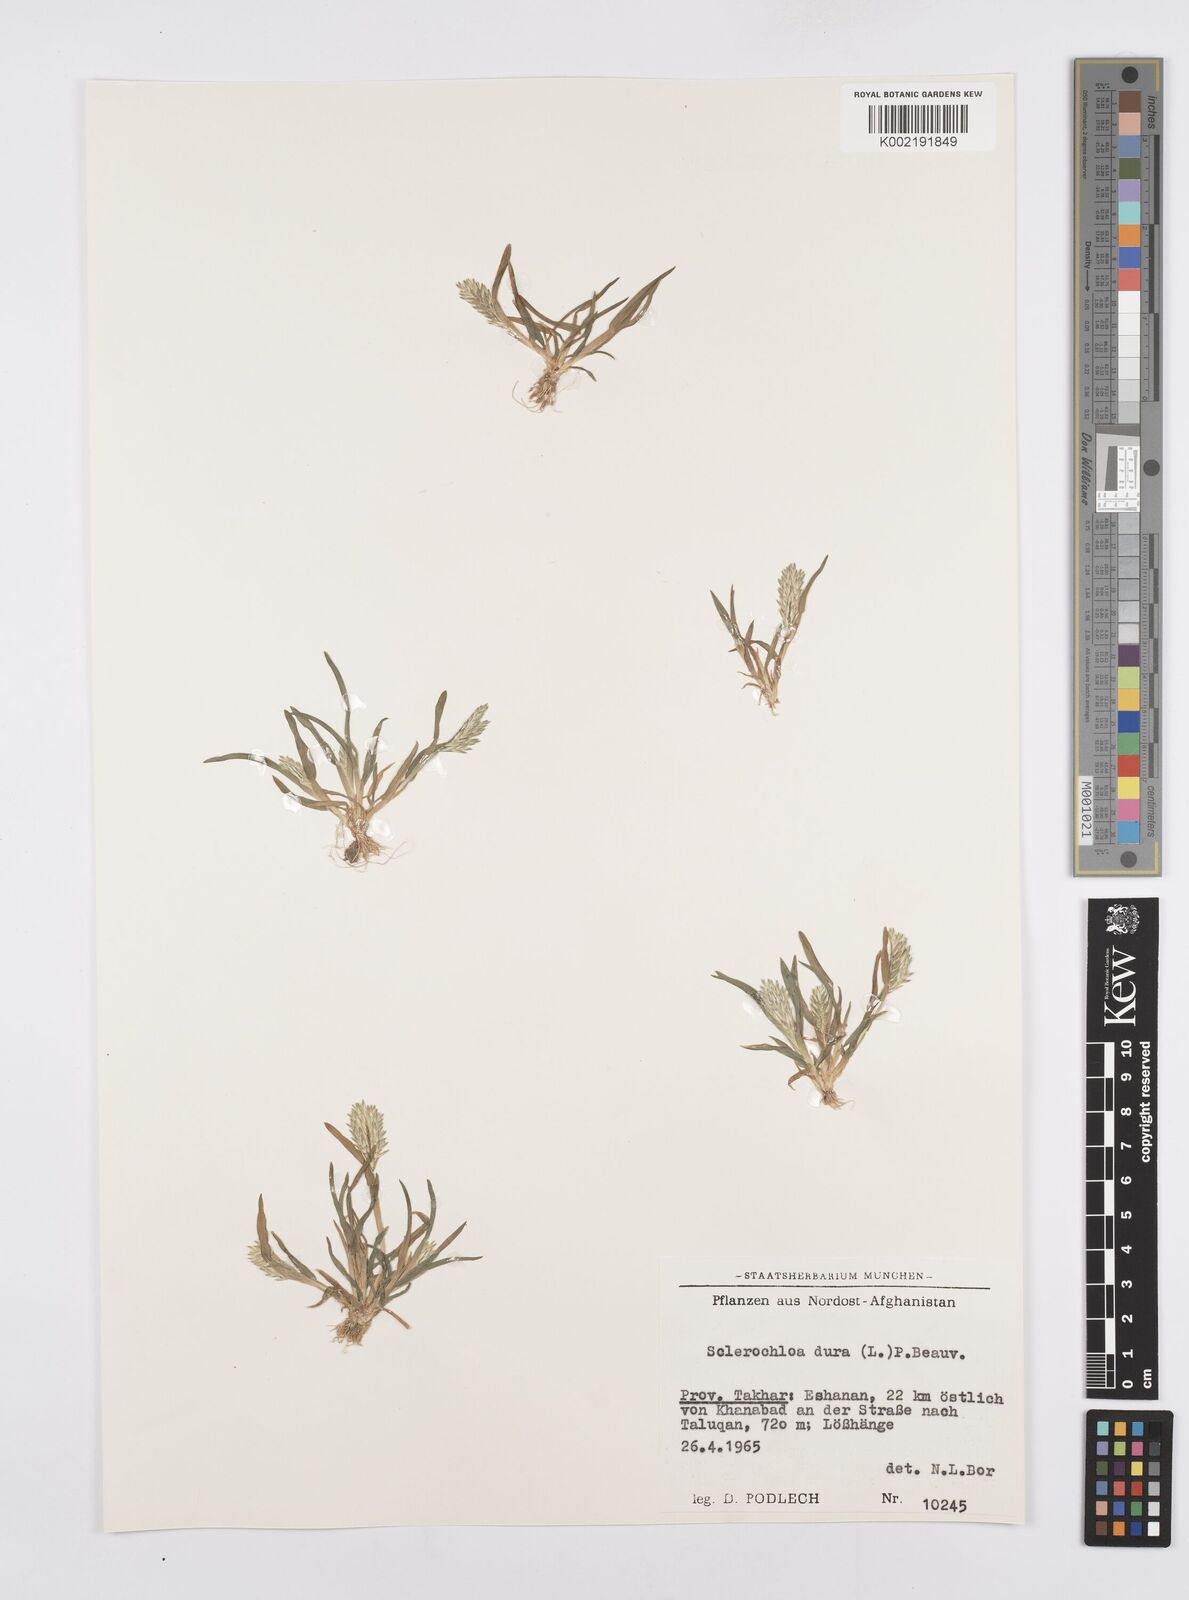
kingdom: Plantae
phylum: Tracheophyta
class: Liliopsida
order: Poales
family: Poaceae
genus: Sclerochloa
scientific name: Sclerochloa dura
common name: Common hardgrass
